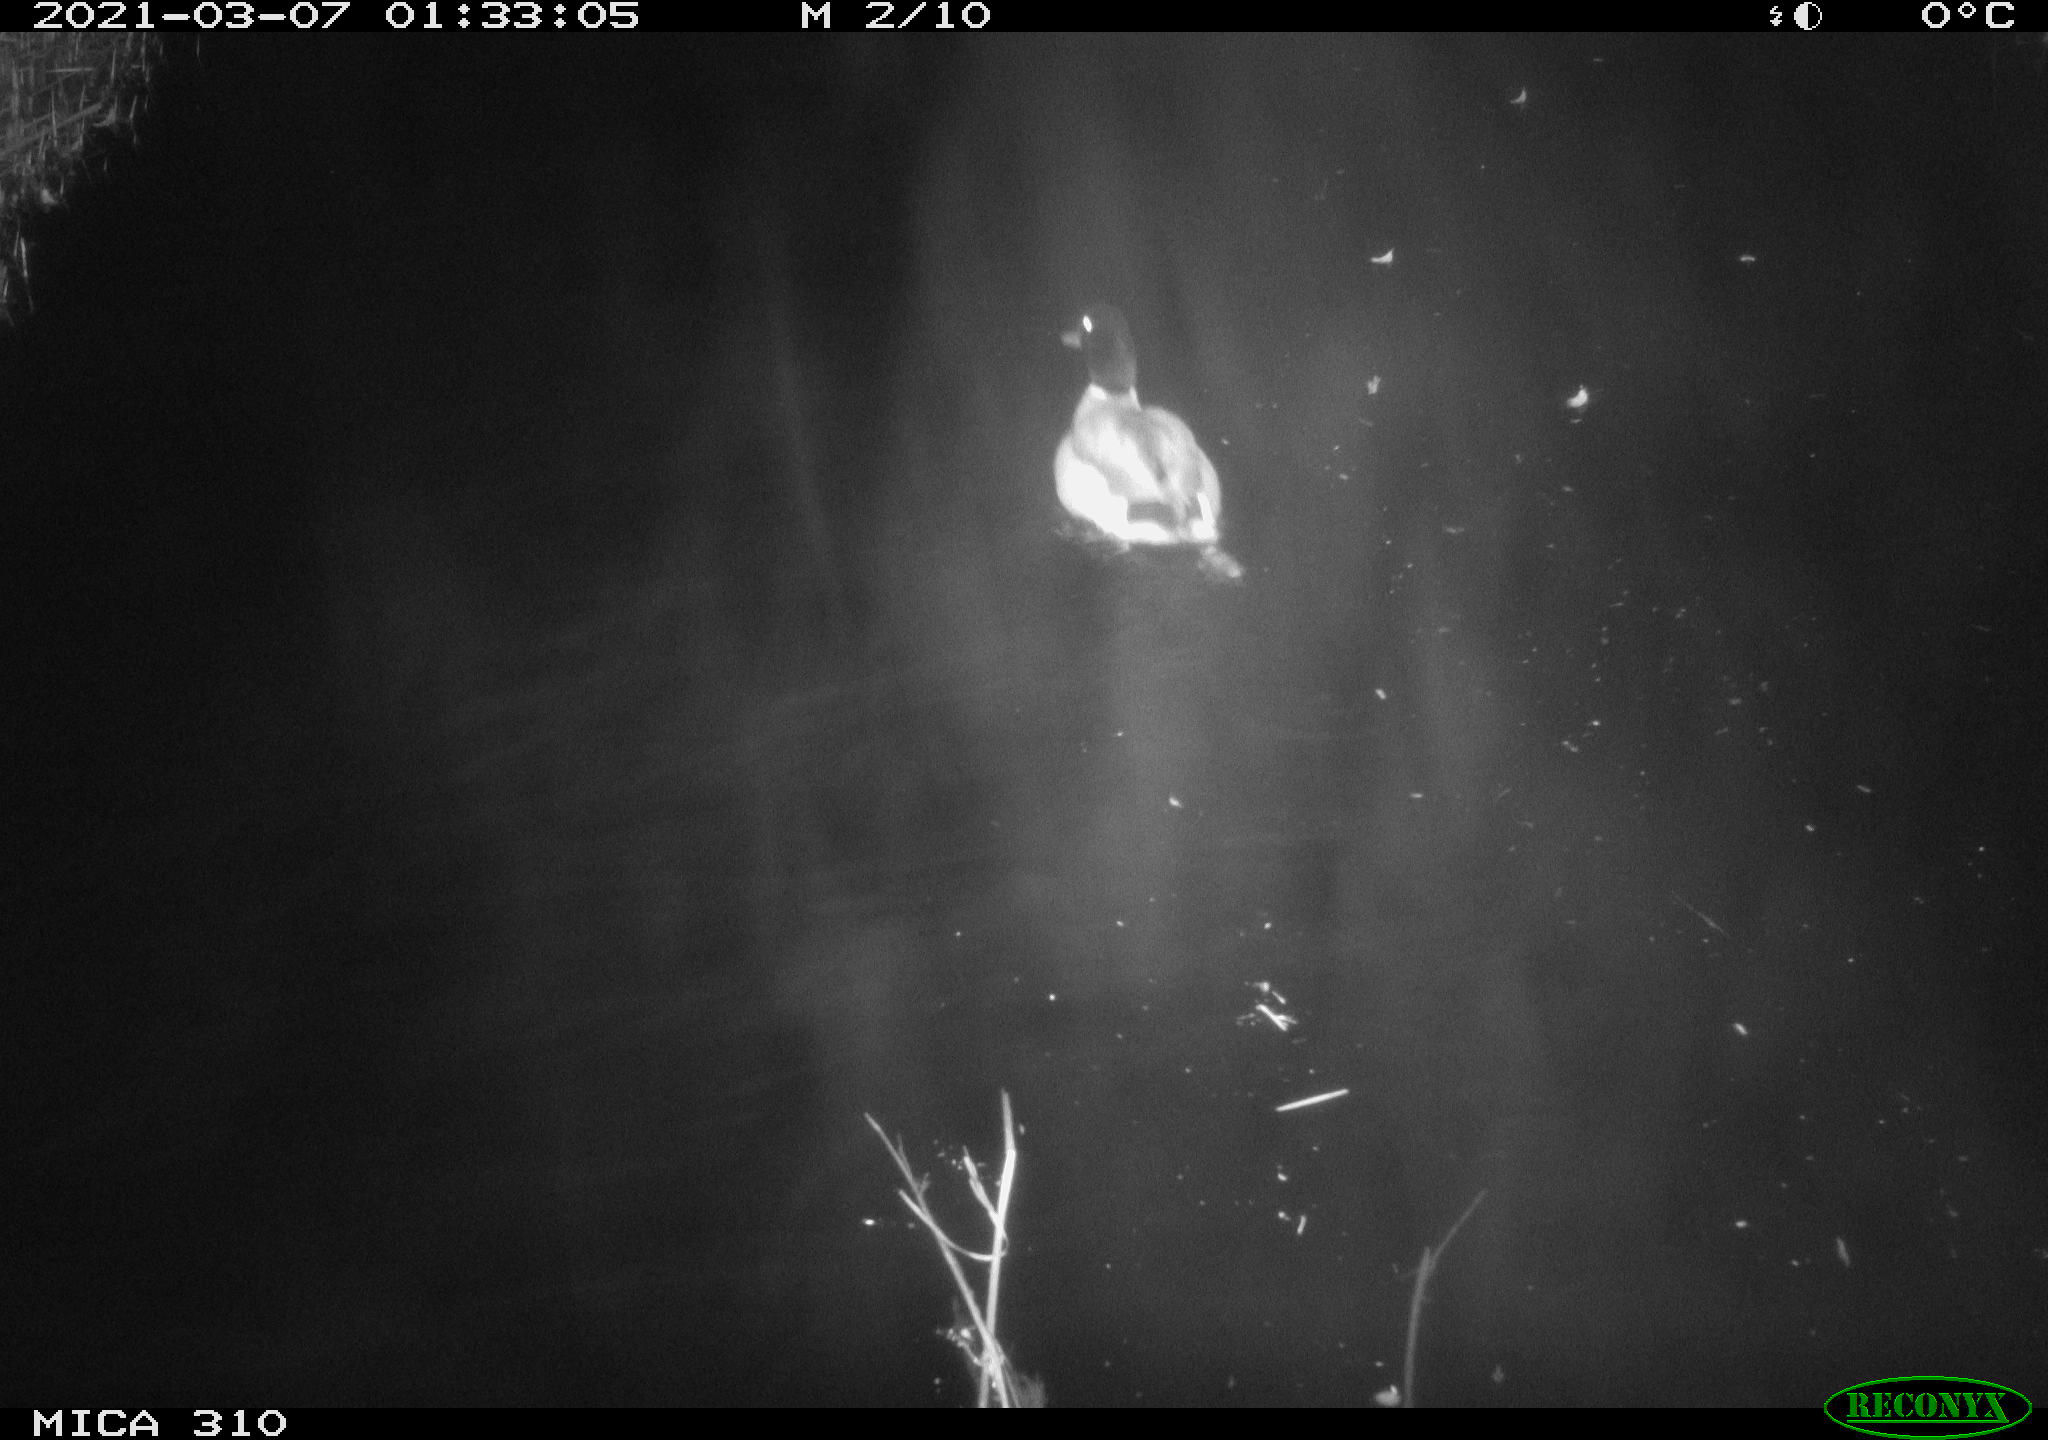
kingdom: Animalia
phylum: Chordata
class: Aves
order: Anseriformes
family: Anatidae
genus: Anas
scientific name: Anas platyrhynchos
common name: Mallard
